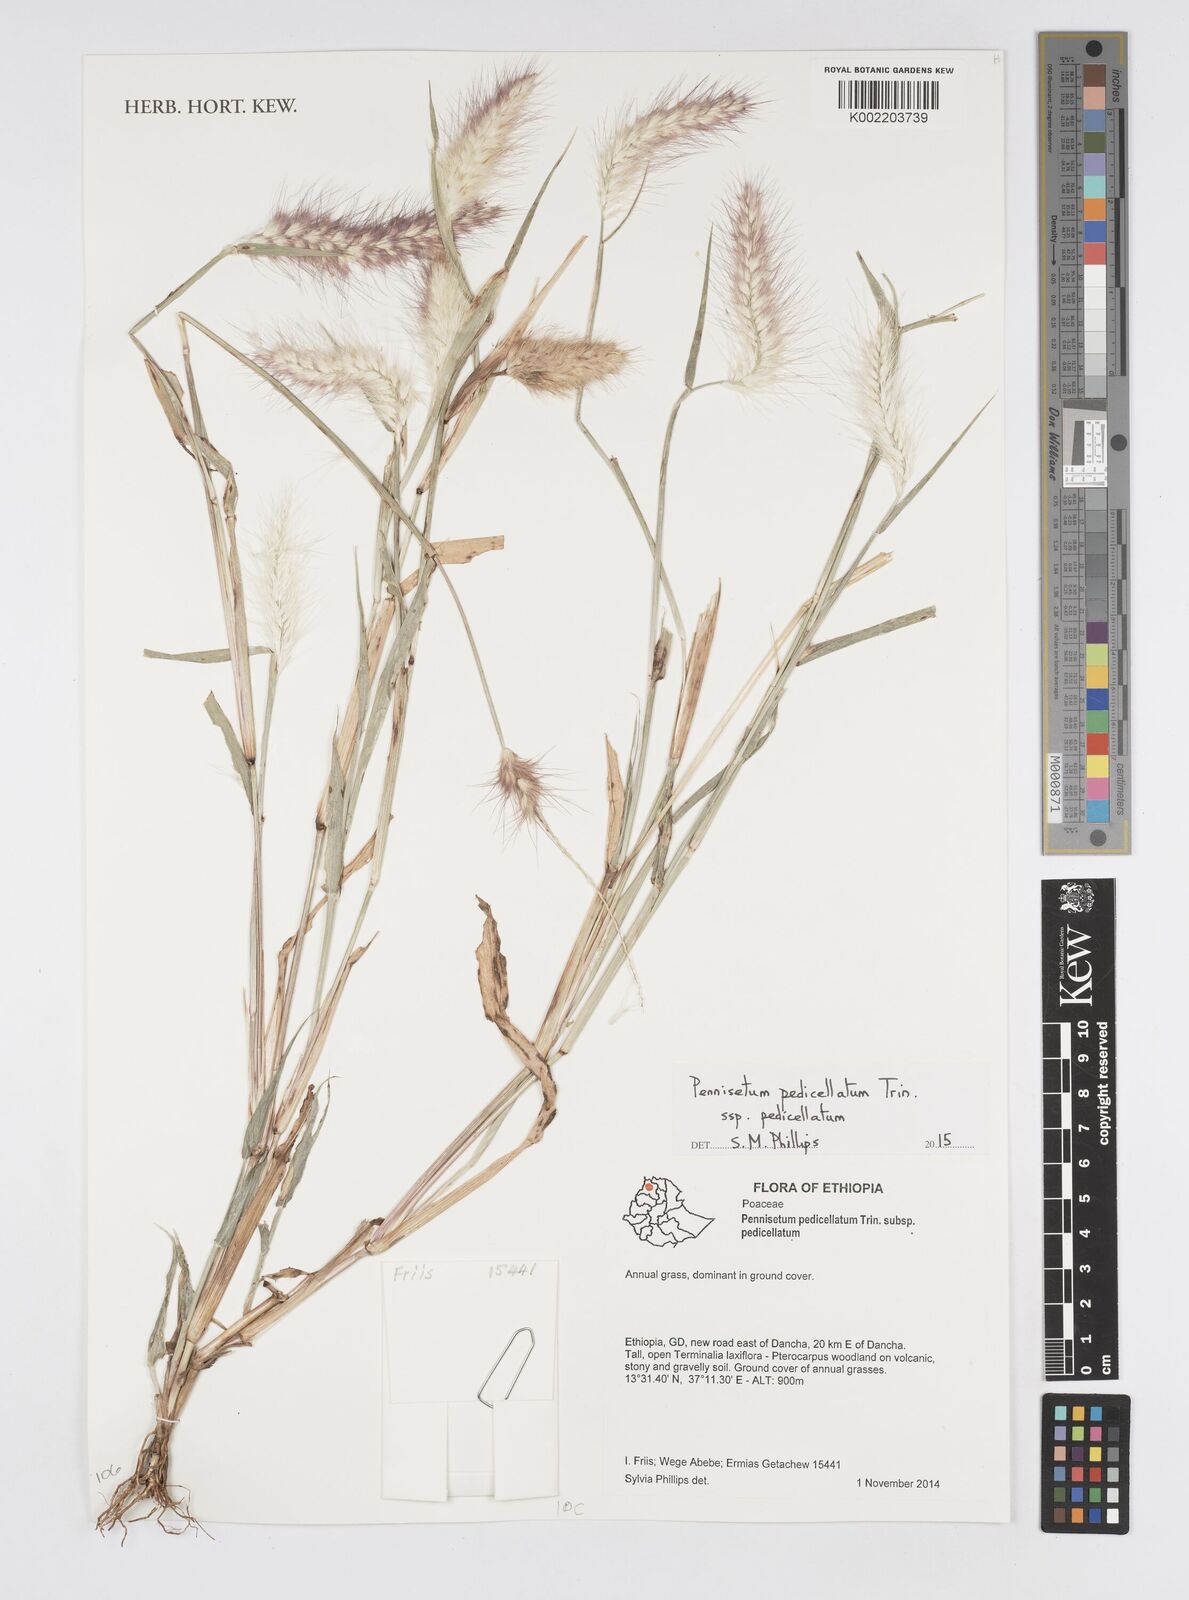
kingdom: Plantae
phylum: Tracheophyta
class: Liliopsida
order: Poales
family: Poaceae
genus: Cenchrus
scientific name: Cenchrus pedicellatus
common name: Hairy fountain grass
